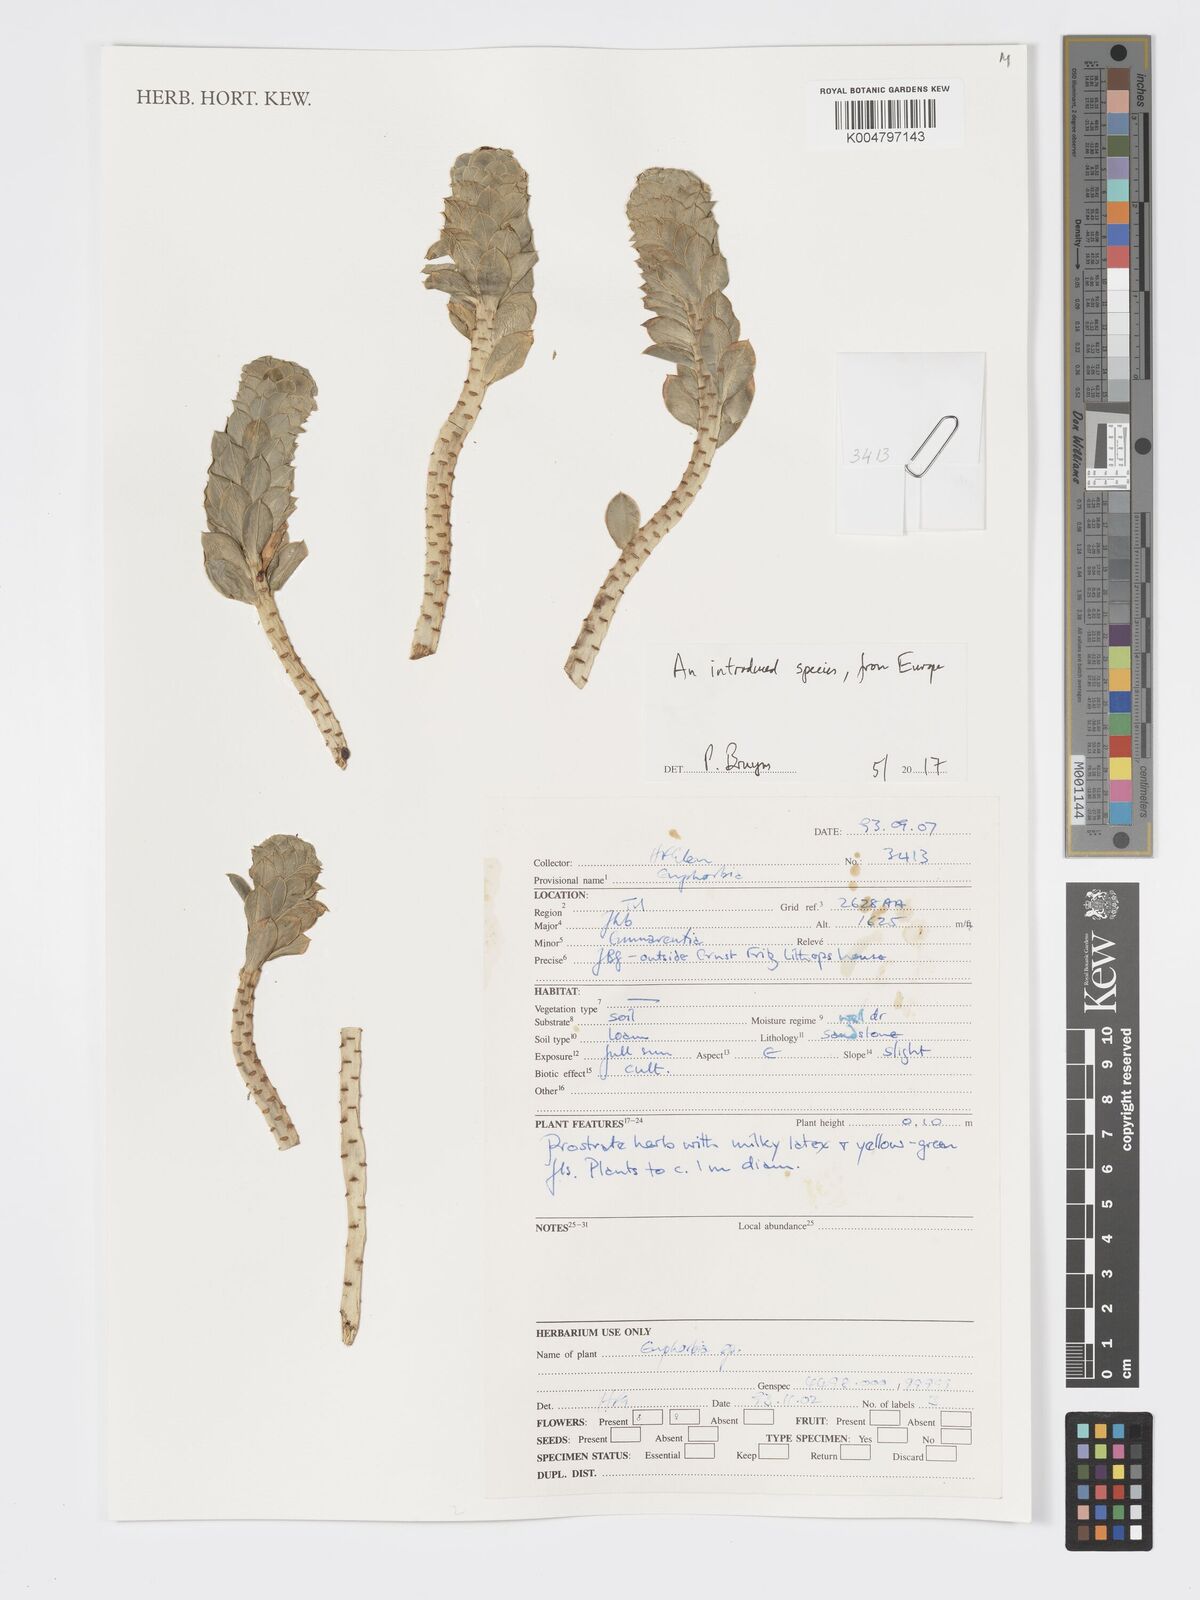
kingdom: Plantae
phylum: Tracheophyta
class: Magnoliopsida
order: Malpighiales
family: Euphorbiaceae
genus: Euphorbia
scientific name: Euphorbia
